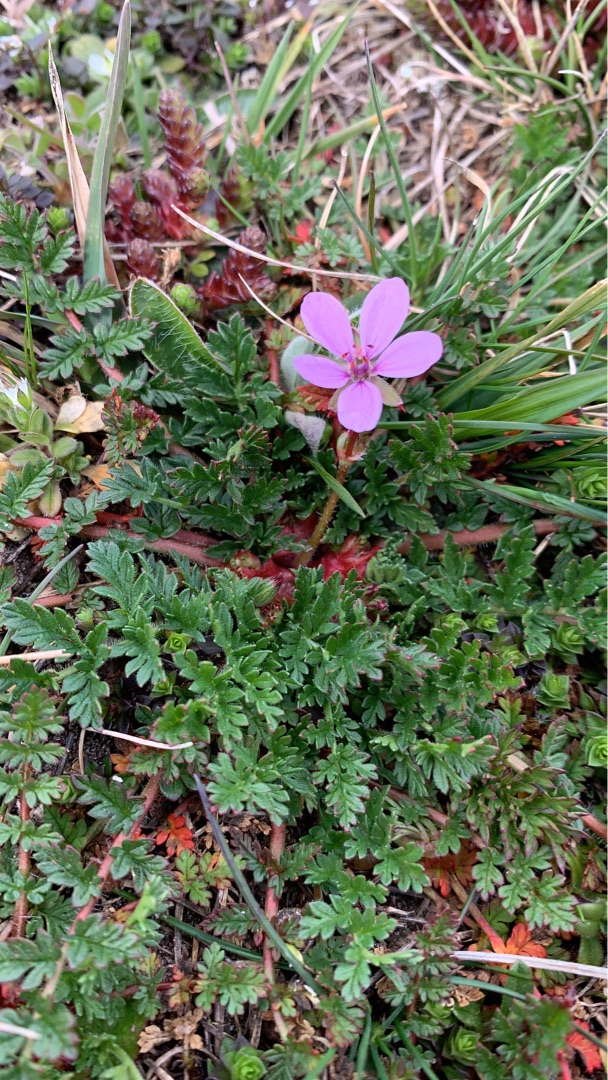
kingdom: Plantae
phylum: Tracheophyta
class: Magnoliopsida
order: Geraniales
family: Geraniaceae
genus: Erodium
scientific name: Erodium cicutarium
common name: Hejrenæb
